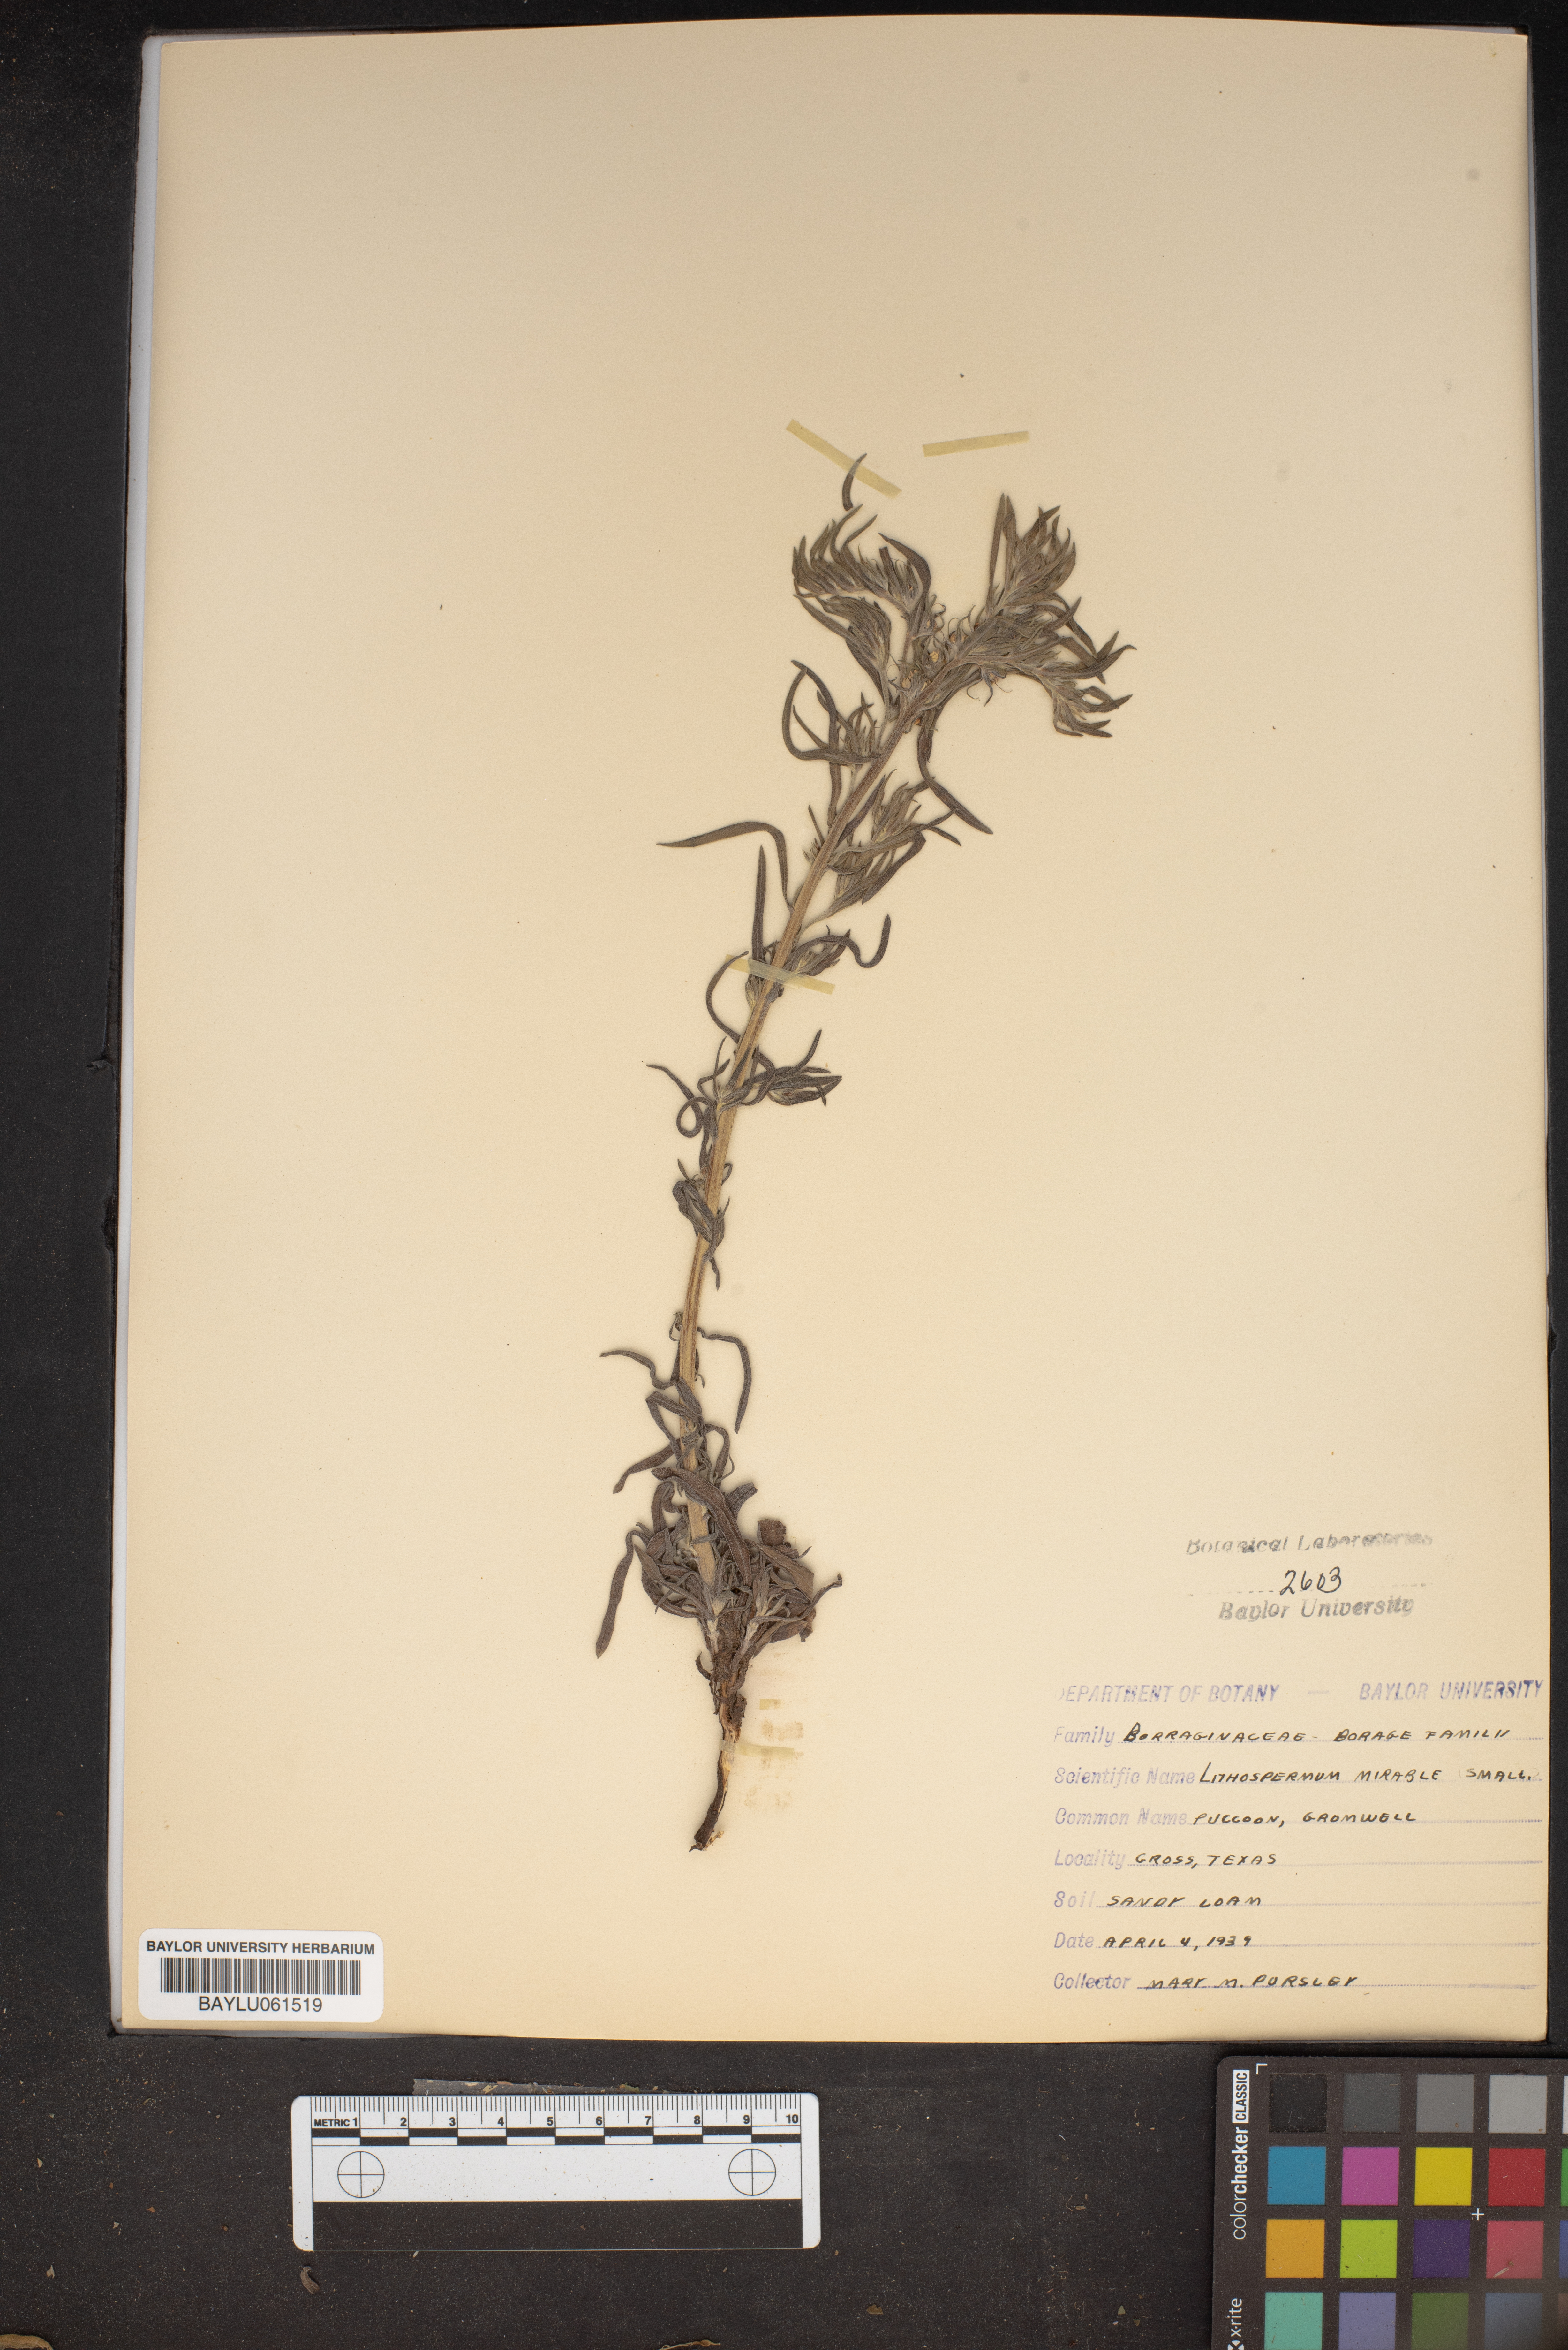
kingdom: Plantae
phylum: Tracheophyta
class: Magnoliopsida
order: Boraginales
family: Boraginaceae
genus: Lithospermum
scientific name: Lithospermum mirabile
